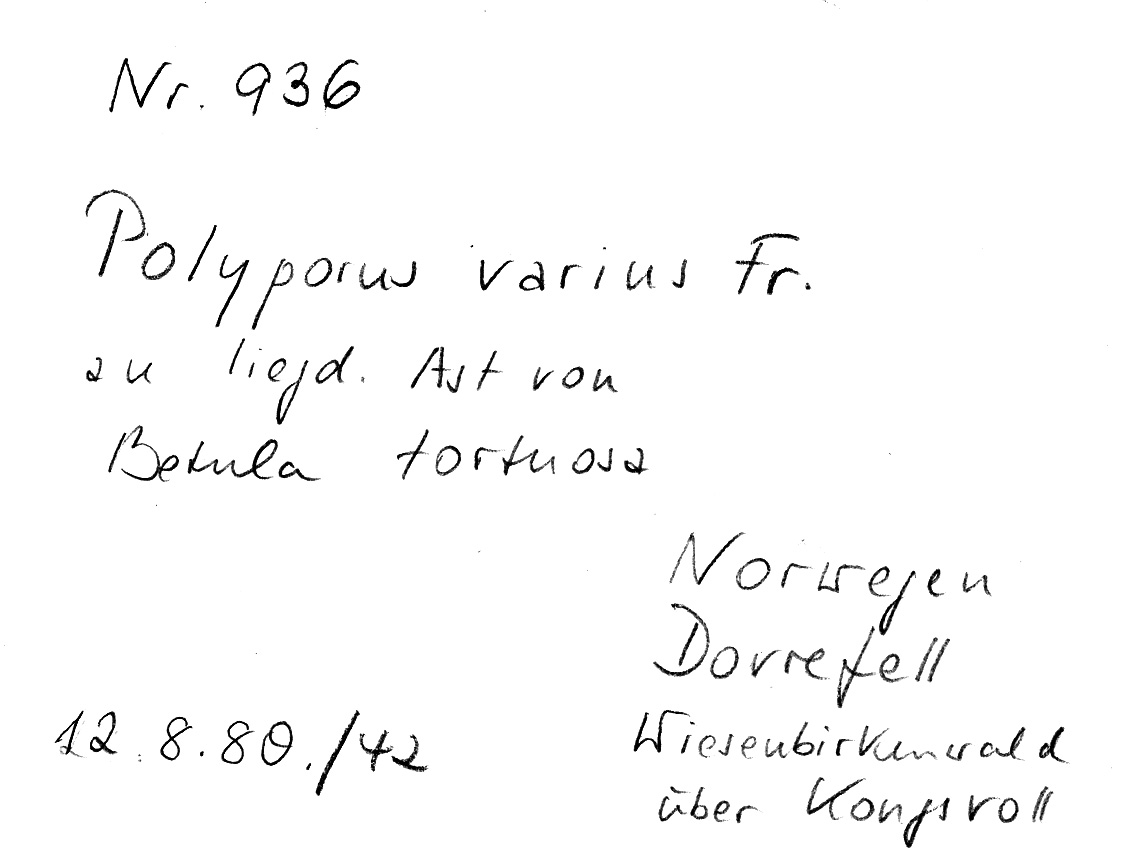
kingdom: Plantae
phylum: Tracheophyta
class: Magnoliopsida
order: Fagales
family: Betulaceae
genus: Betula
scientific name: Betula pubescens
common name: Downy birch
